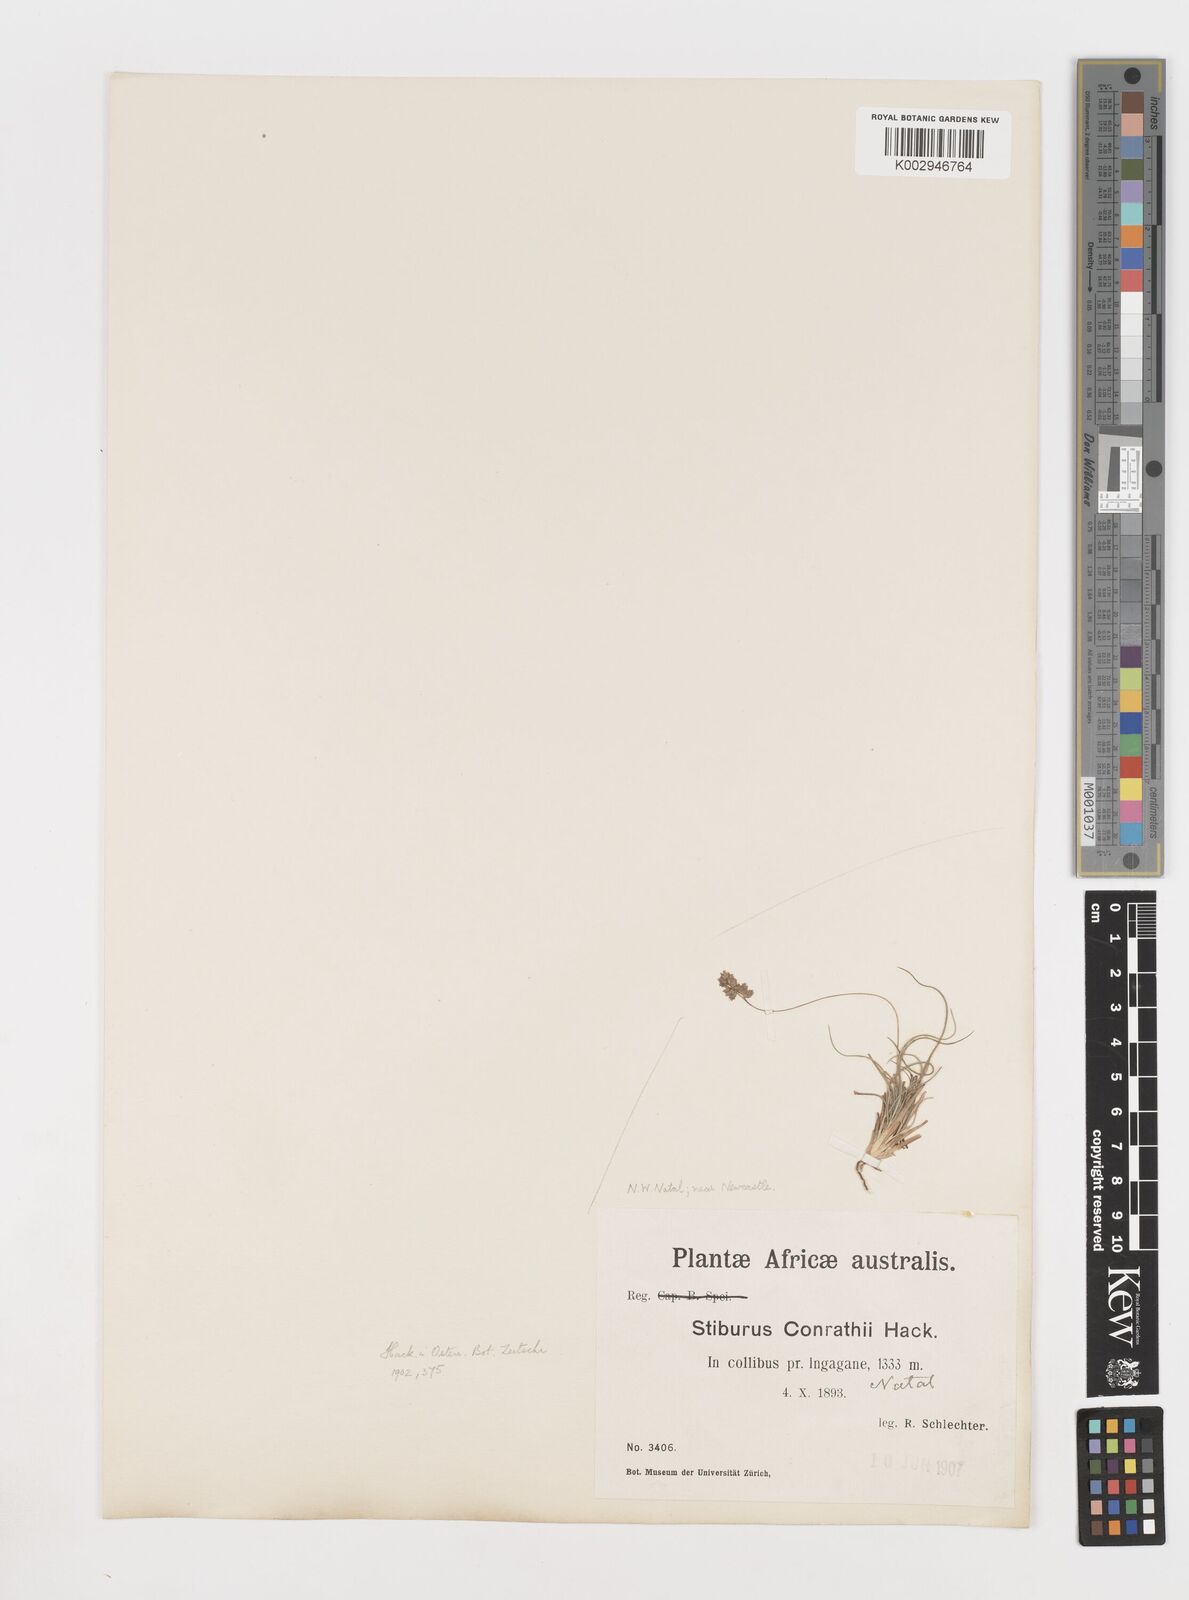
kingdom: Plantae
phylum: Tracheophyta
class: Liliopsida
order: Poales
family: Poaceae
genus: Stiburus
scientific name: Stiburus conrathii
